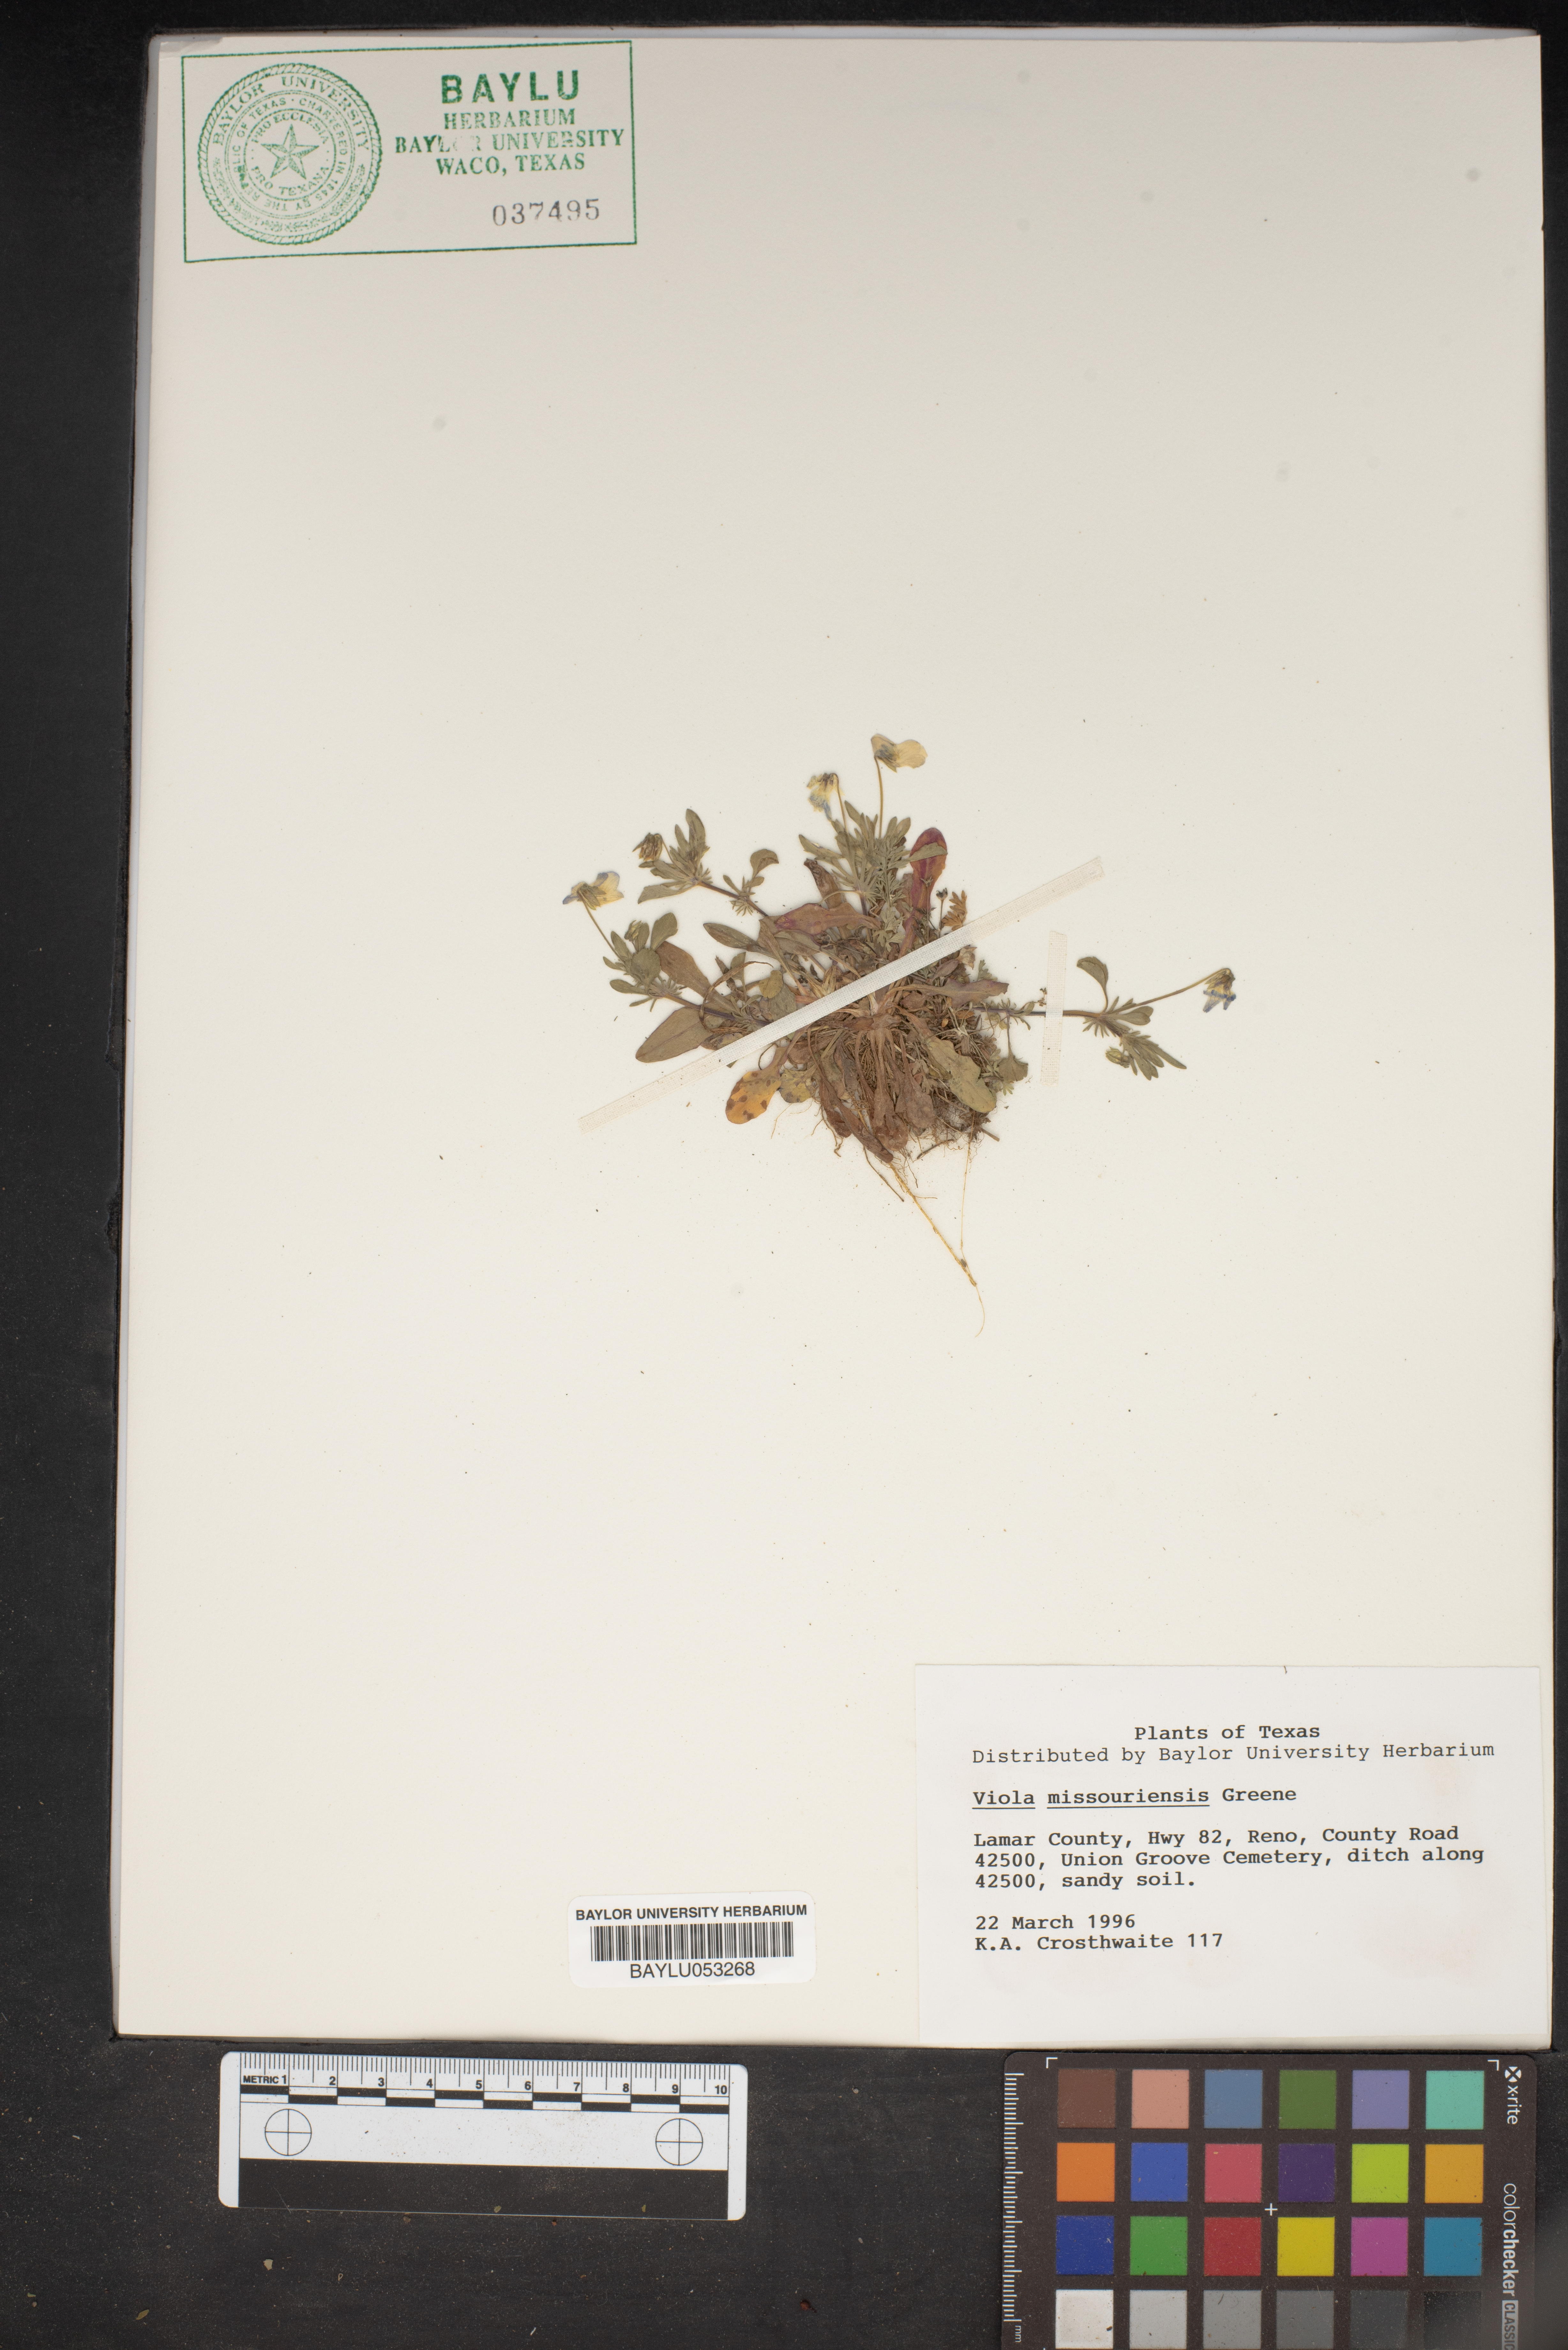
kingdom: Plantae
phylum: Tracheophyta
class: Magnoliopsida
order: Malpighiales
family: Violaceae
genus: Viola
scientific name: Viola missouriensis
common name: Missouri violet
